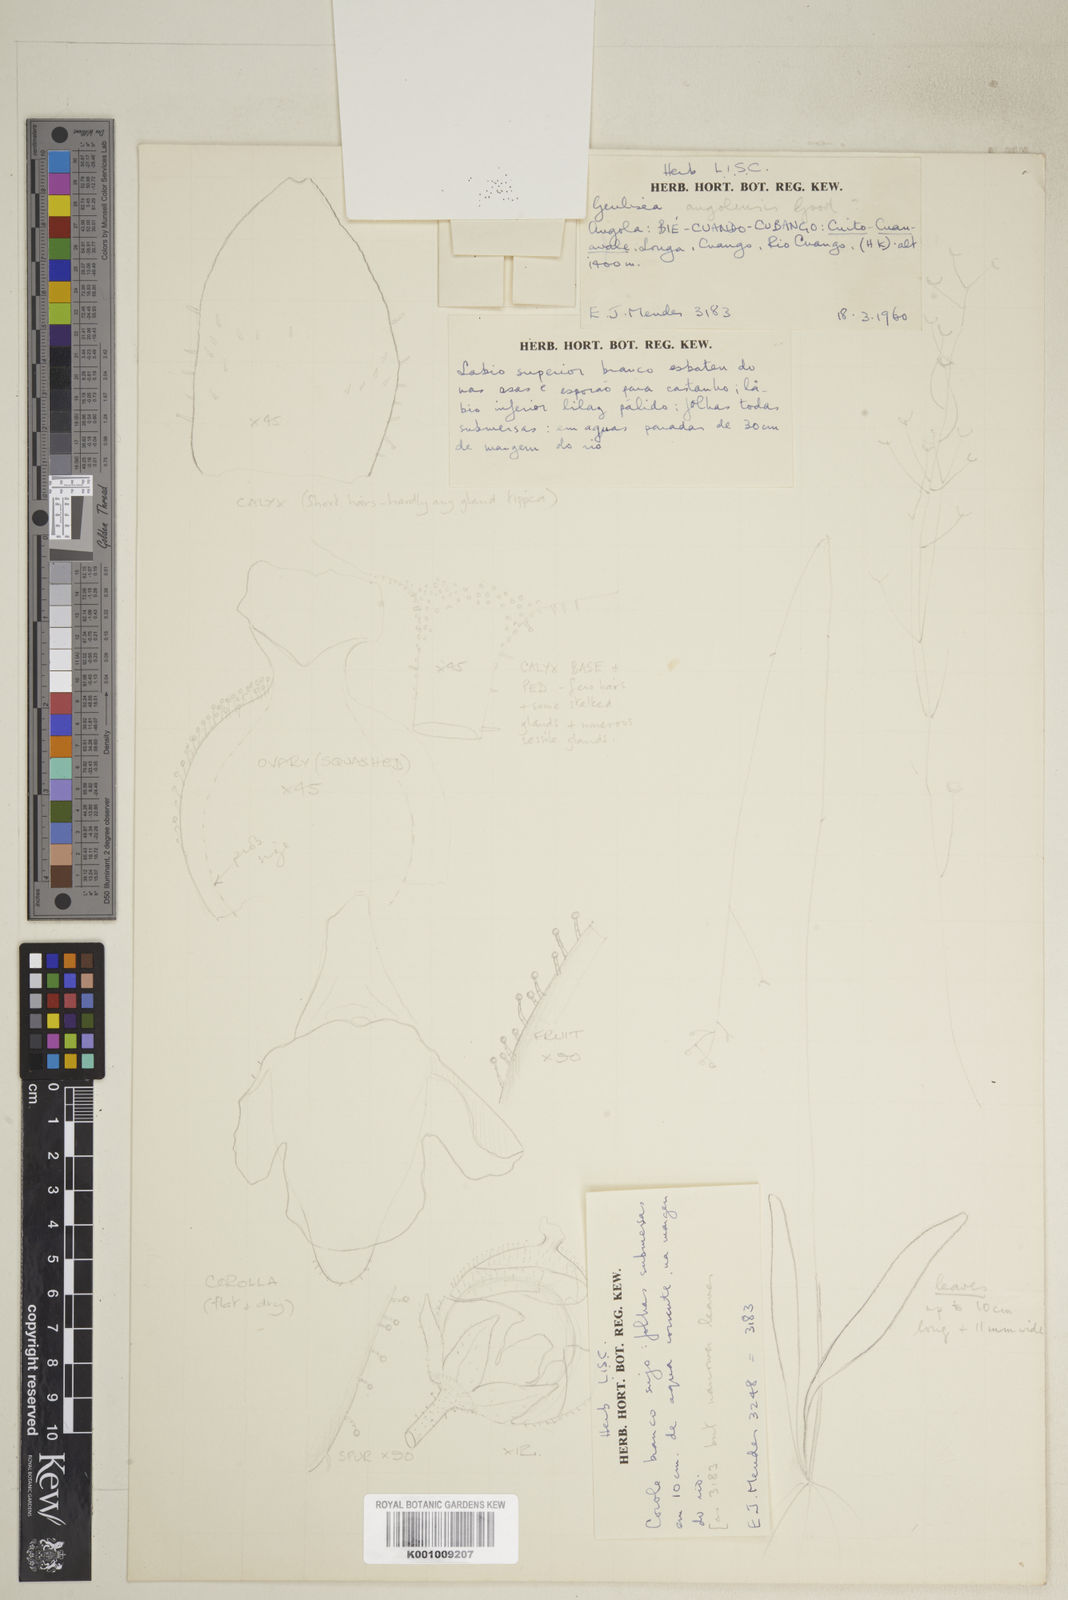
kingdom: Plantae
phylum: Tracheophyta
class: Magnoliopsida
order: Lamiales
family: Lentibulariaceae
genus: Genlisea
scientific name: Genlisea angolensis
